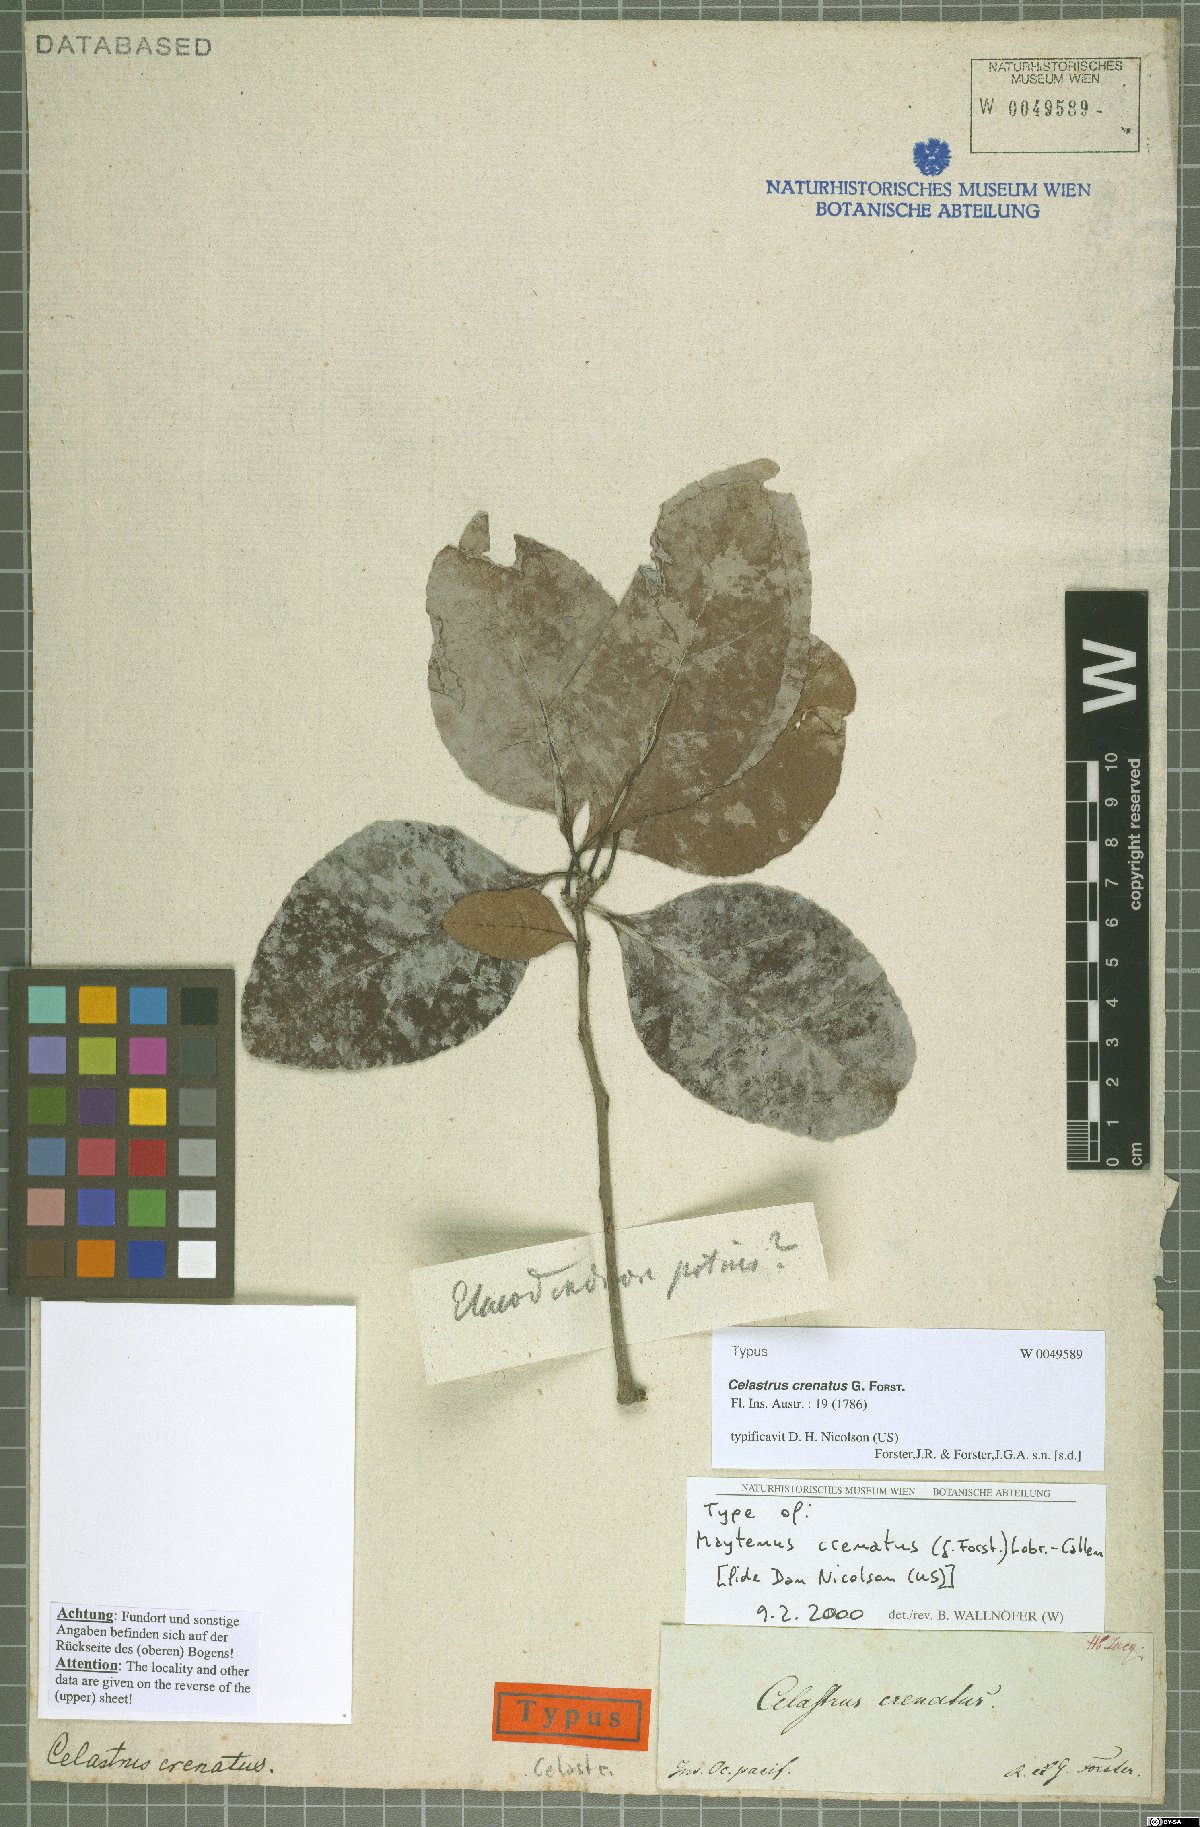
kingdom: Plantae
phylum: Tracheophyta
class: Magnoliopsida
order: Celastrales
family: Celastraceae
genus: Gymnosporia
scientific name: Gymnosporia crenata
